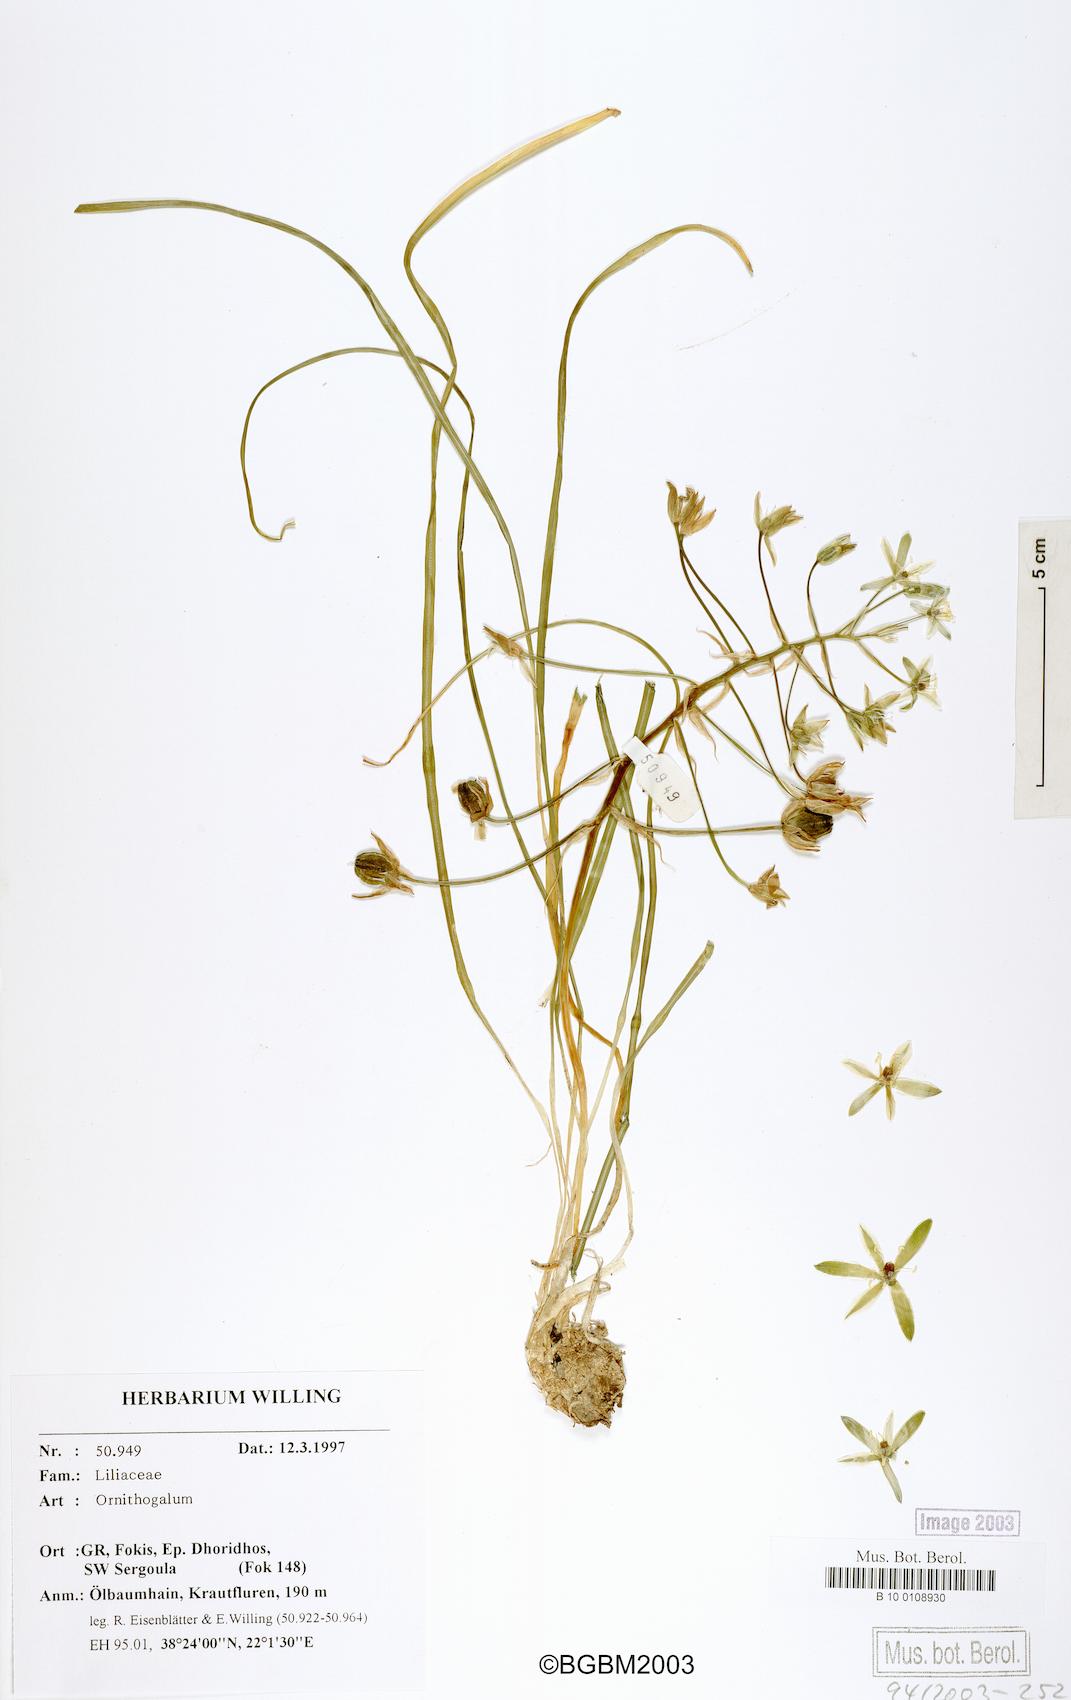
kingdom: Plantae
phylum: Tracheophyta
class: Liliopsida
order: Asparagales
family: Asparagaceae
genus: Ornithogalum
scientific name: Ornithogalum
